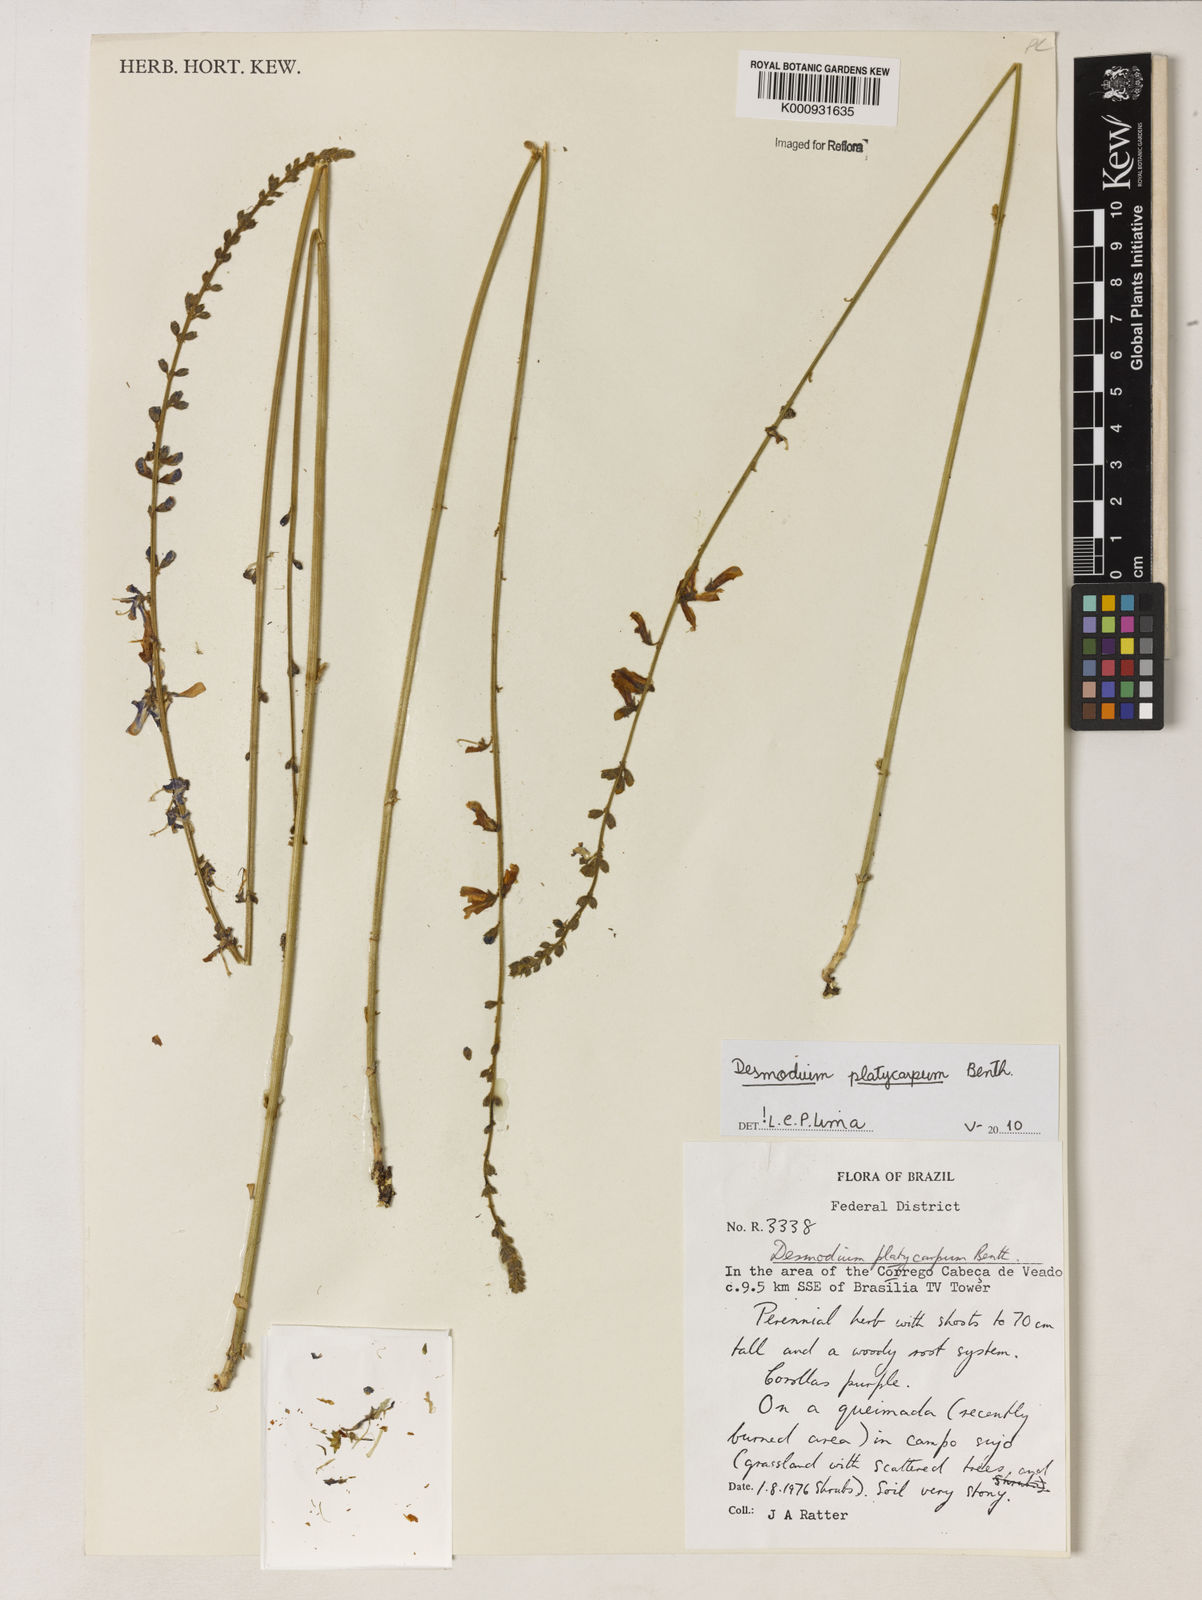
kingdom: Plantae
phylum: Tracheophyta
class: Magnoliopsida
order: Fabales
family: Fabaceae
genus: Desmodium
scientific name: Desmodium platycarpum
